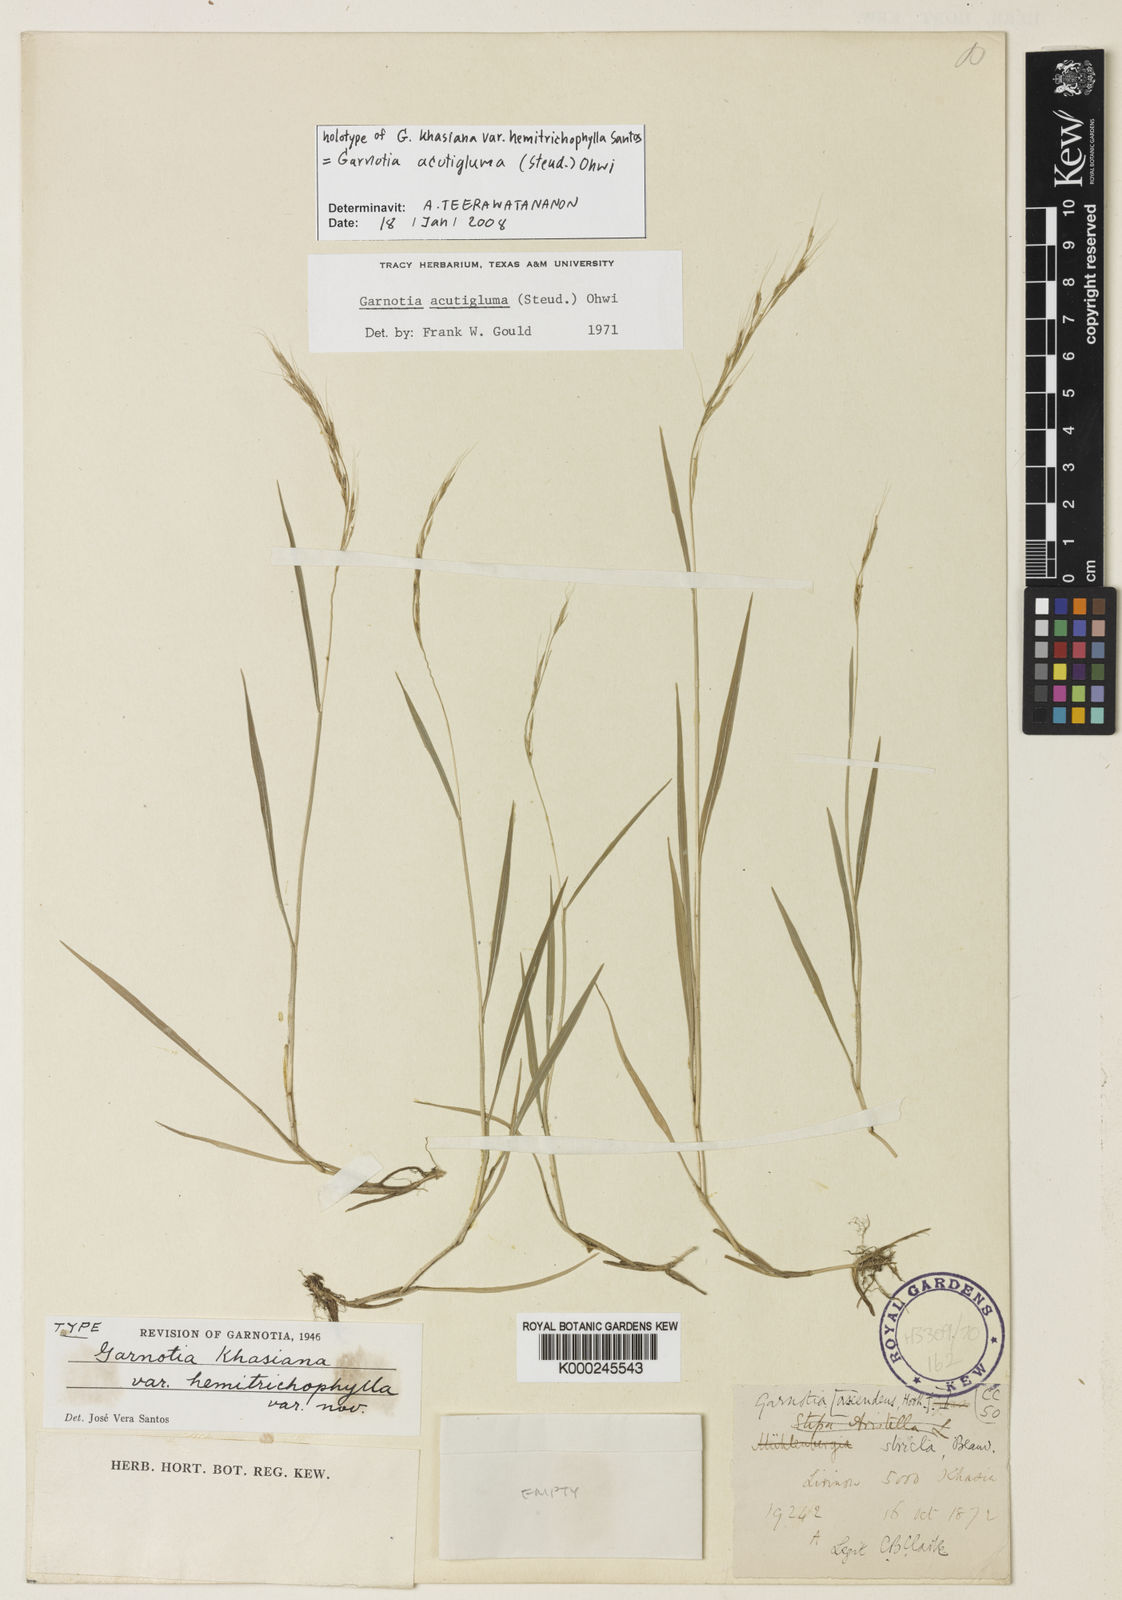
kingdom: Plantae
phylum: Tracheophyta
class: Liliopsida
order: Poales
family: Poaceae
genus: Garnotia
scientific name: Garnotia stricta
